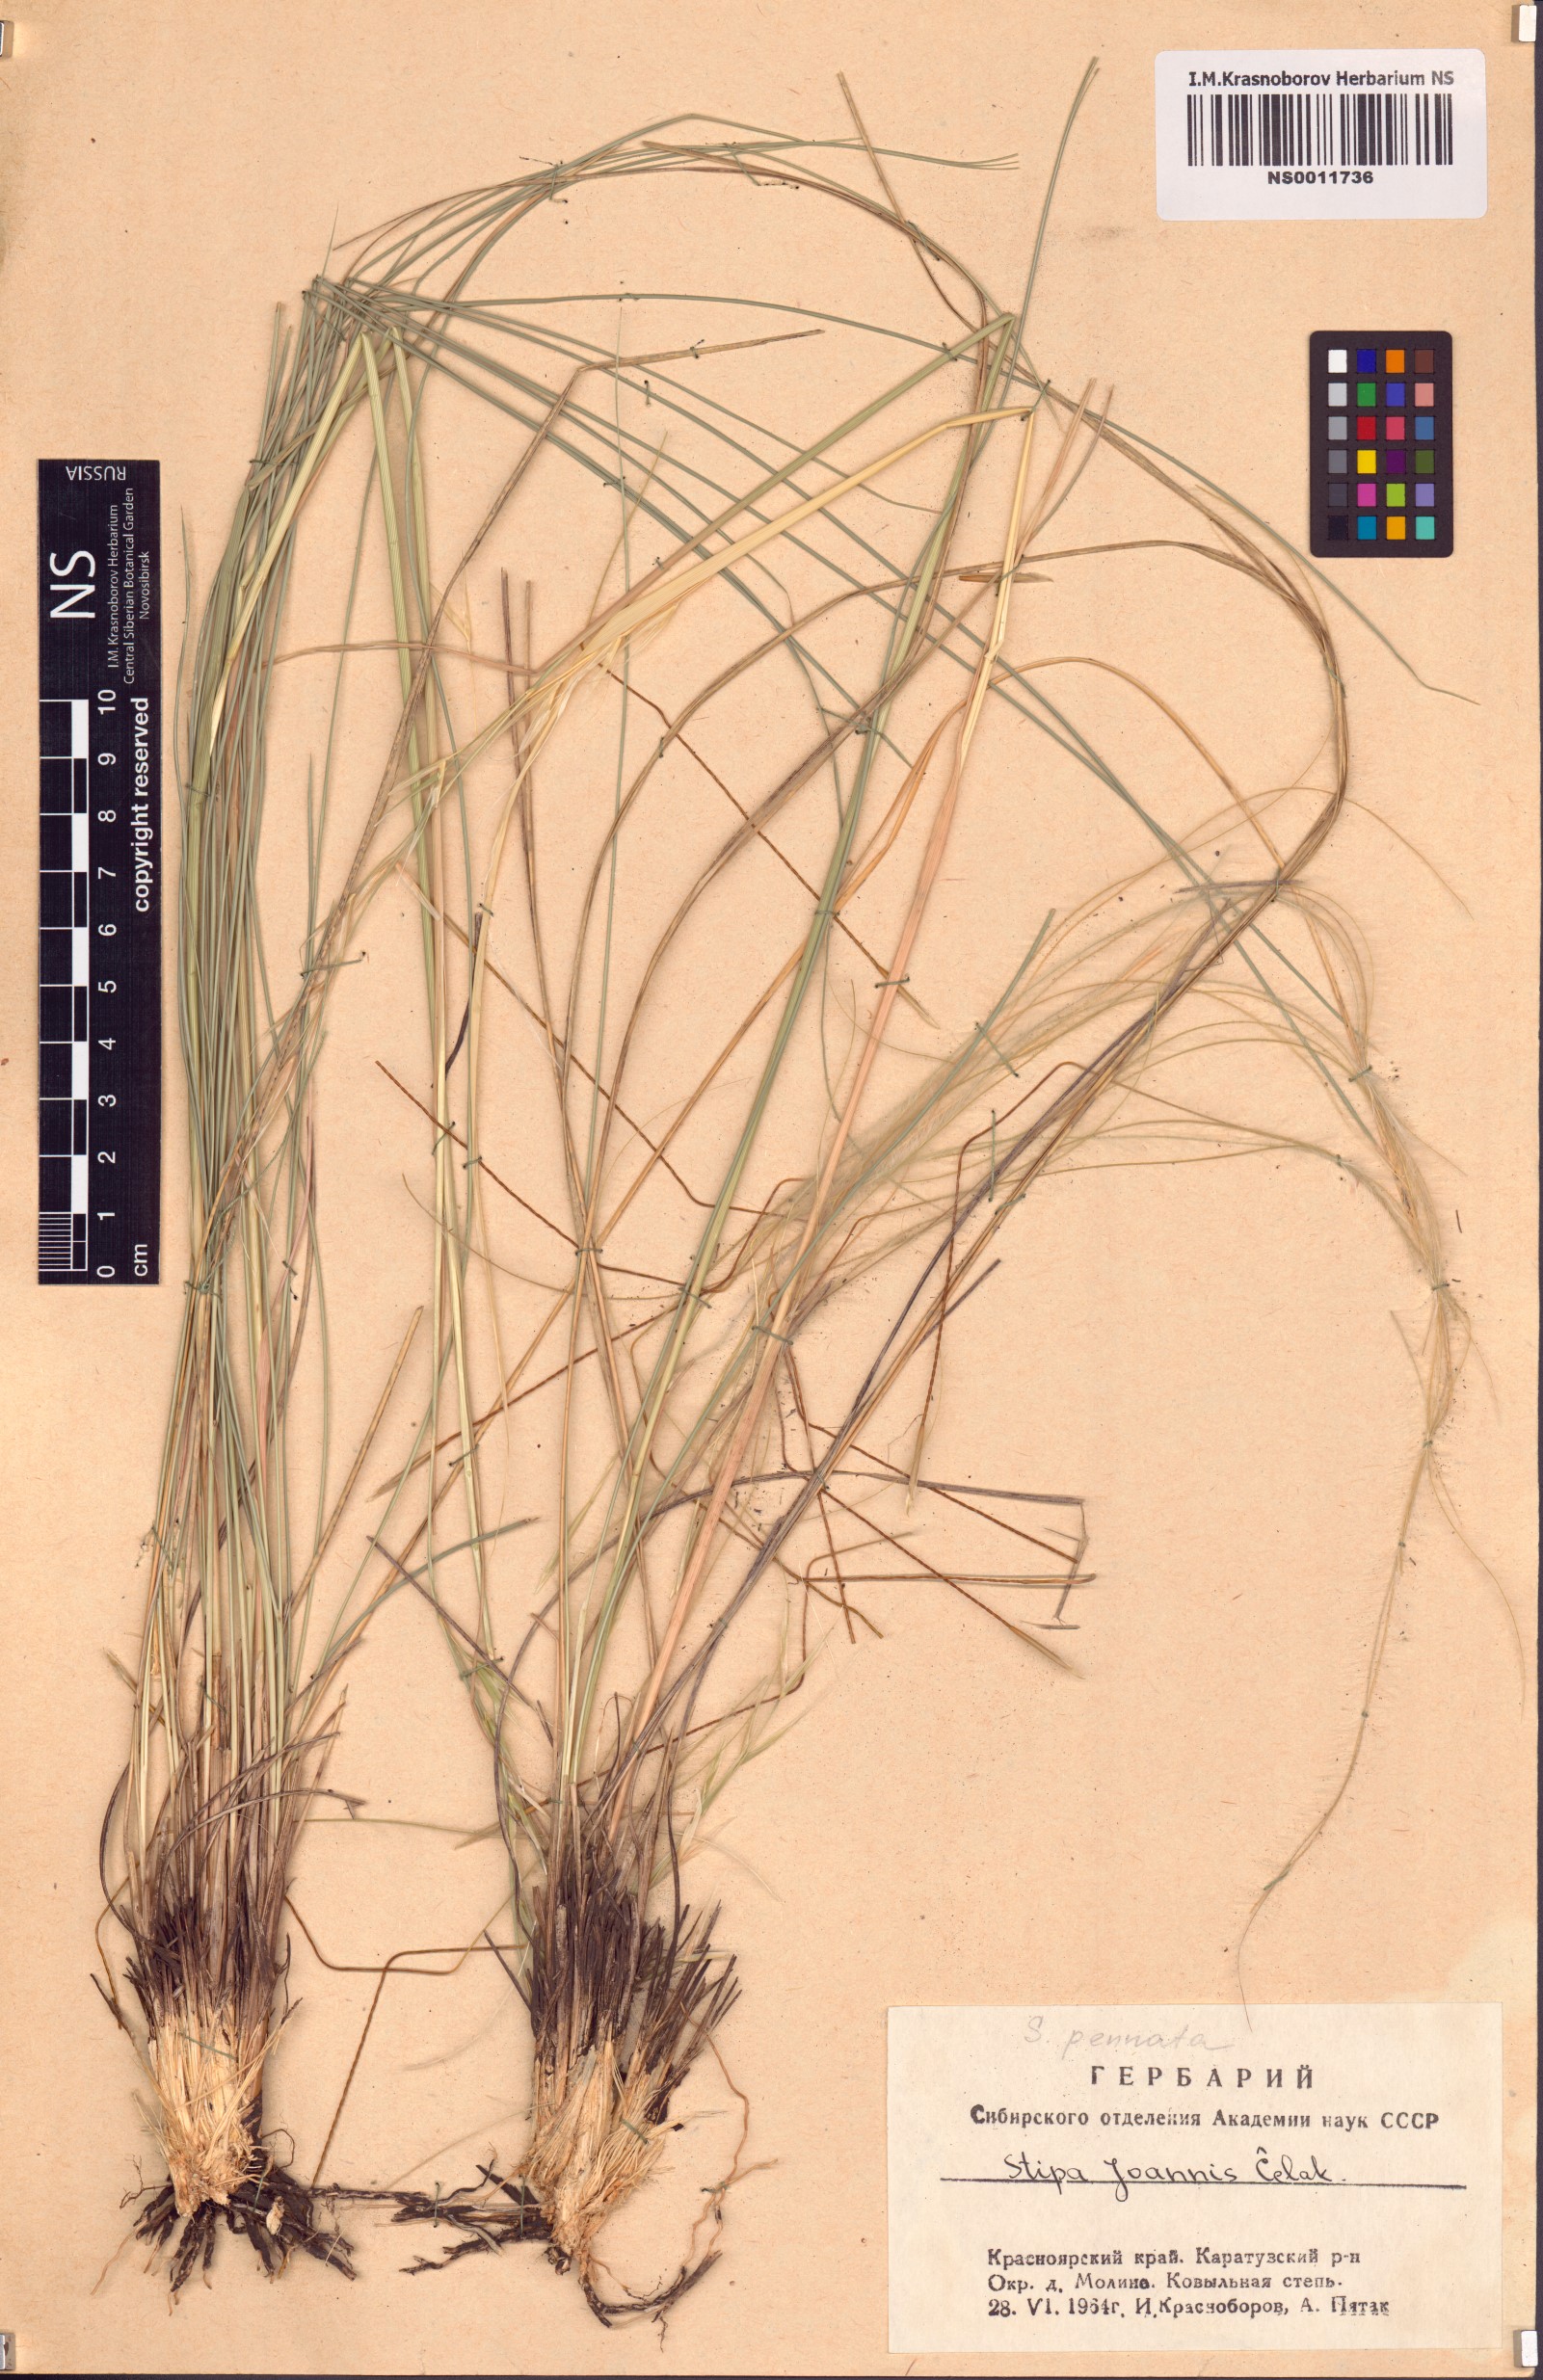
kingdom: Plantae
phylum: Tracheophyta
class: Liliopsida
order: Poales
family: Poaceae
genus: Stipa
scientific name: Stipa pennata
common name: European feather grass
